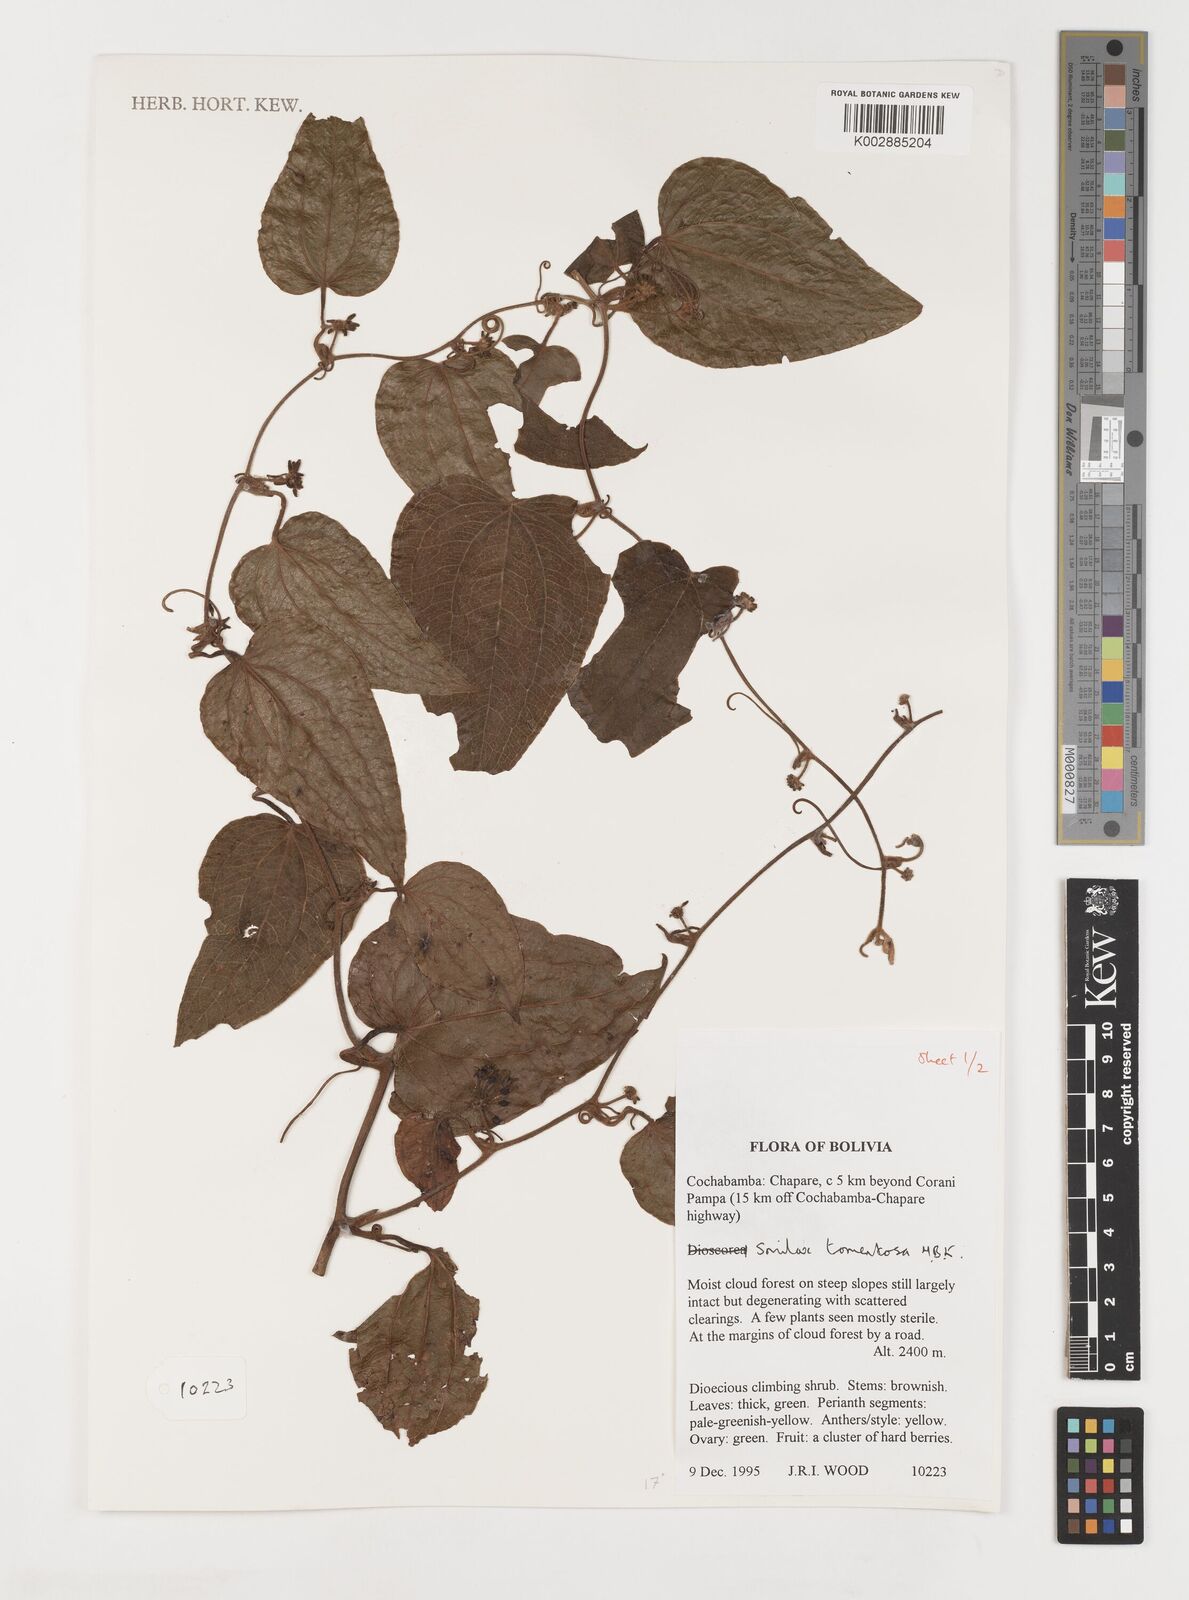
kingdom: Plantae
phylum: Tracheophyta
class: Liliopsida
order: Liliales
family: Smilacaceae
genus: Smilax
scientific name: Smilax tomentosa
